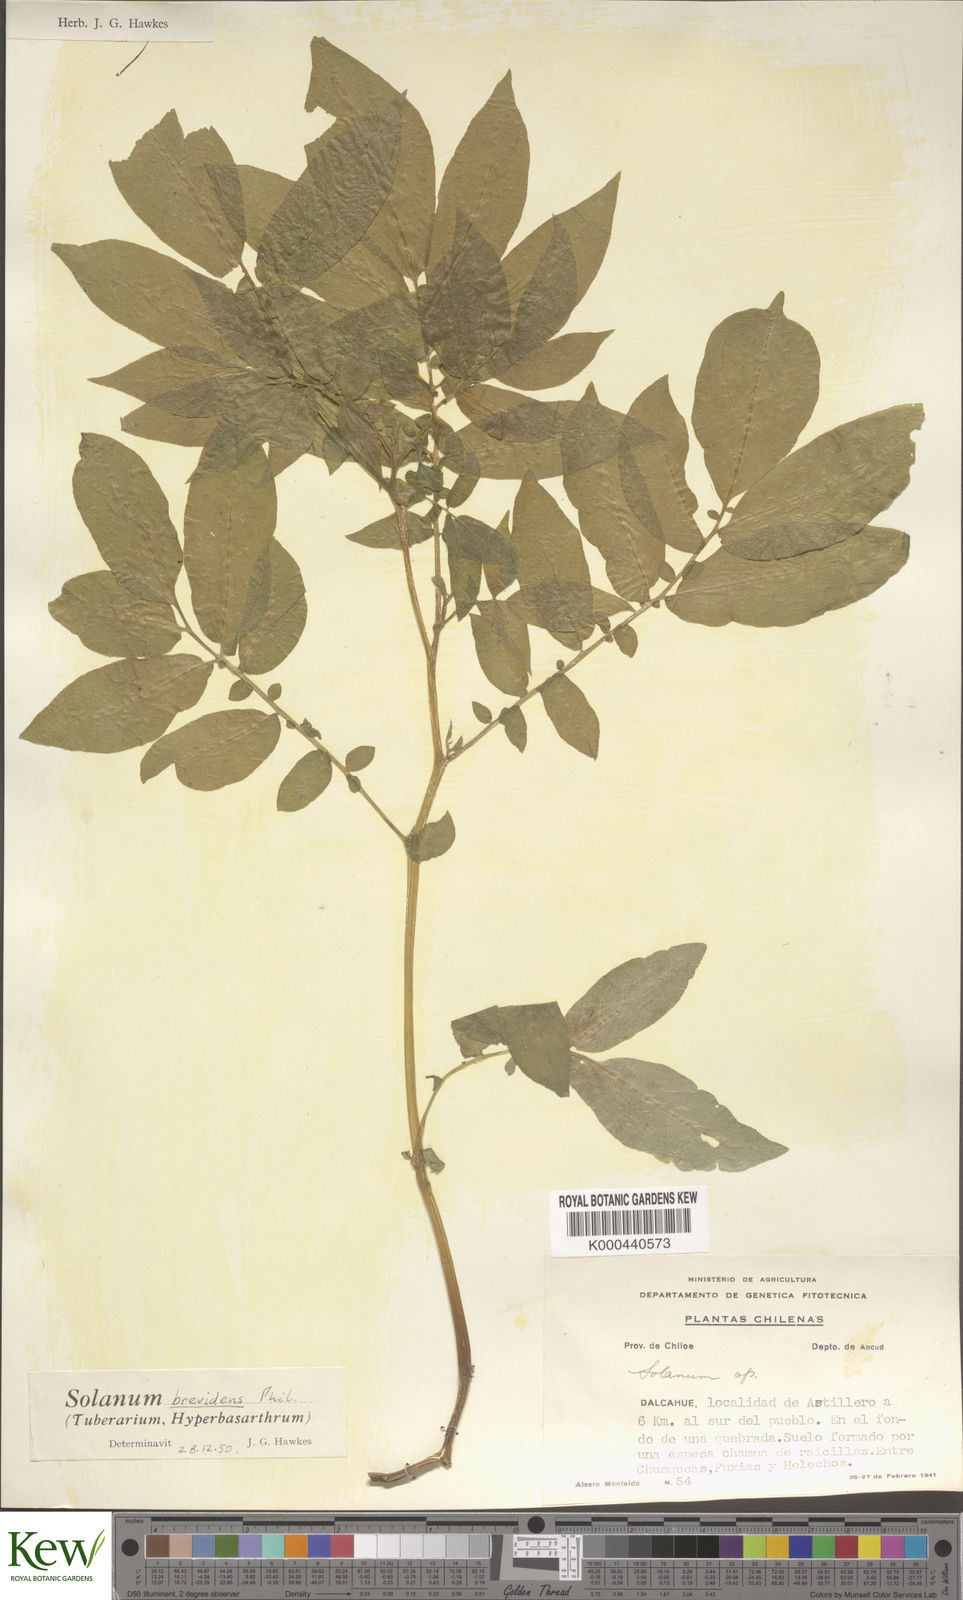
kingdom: Plantae
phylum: Tracheophyta
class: Magnoliopsida
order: Solanales
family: Solanaceae
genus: Solanum
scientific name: Solanum palustre
